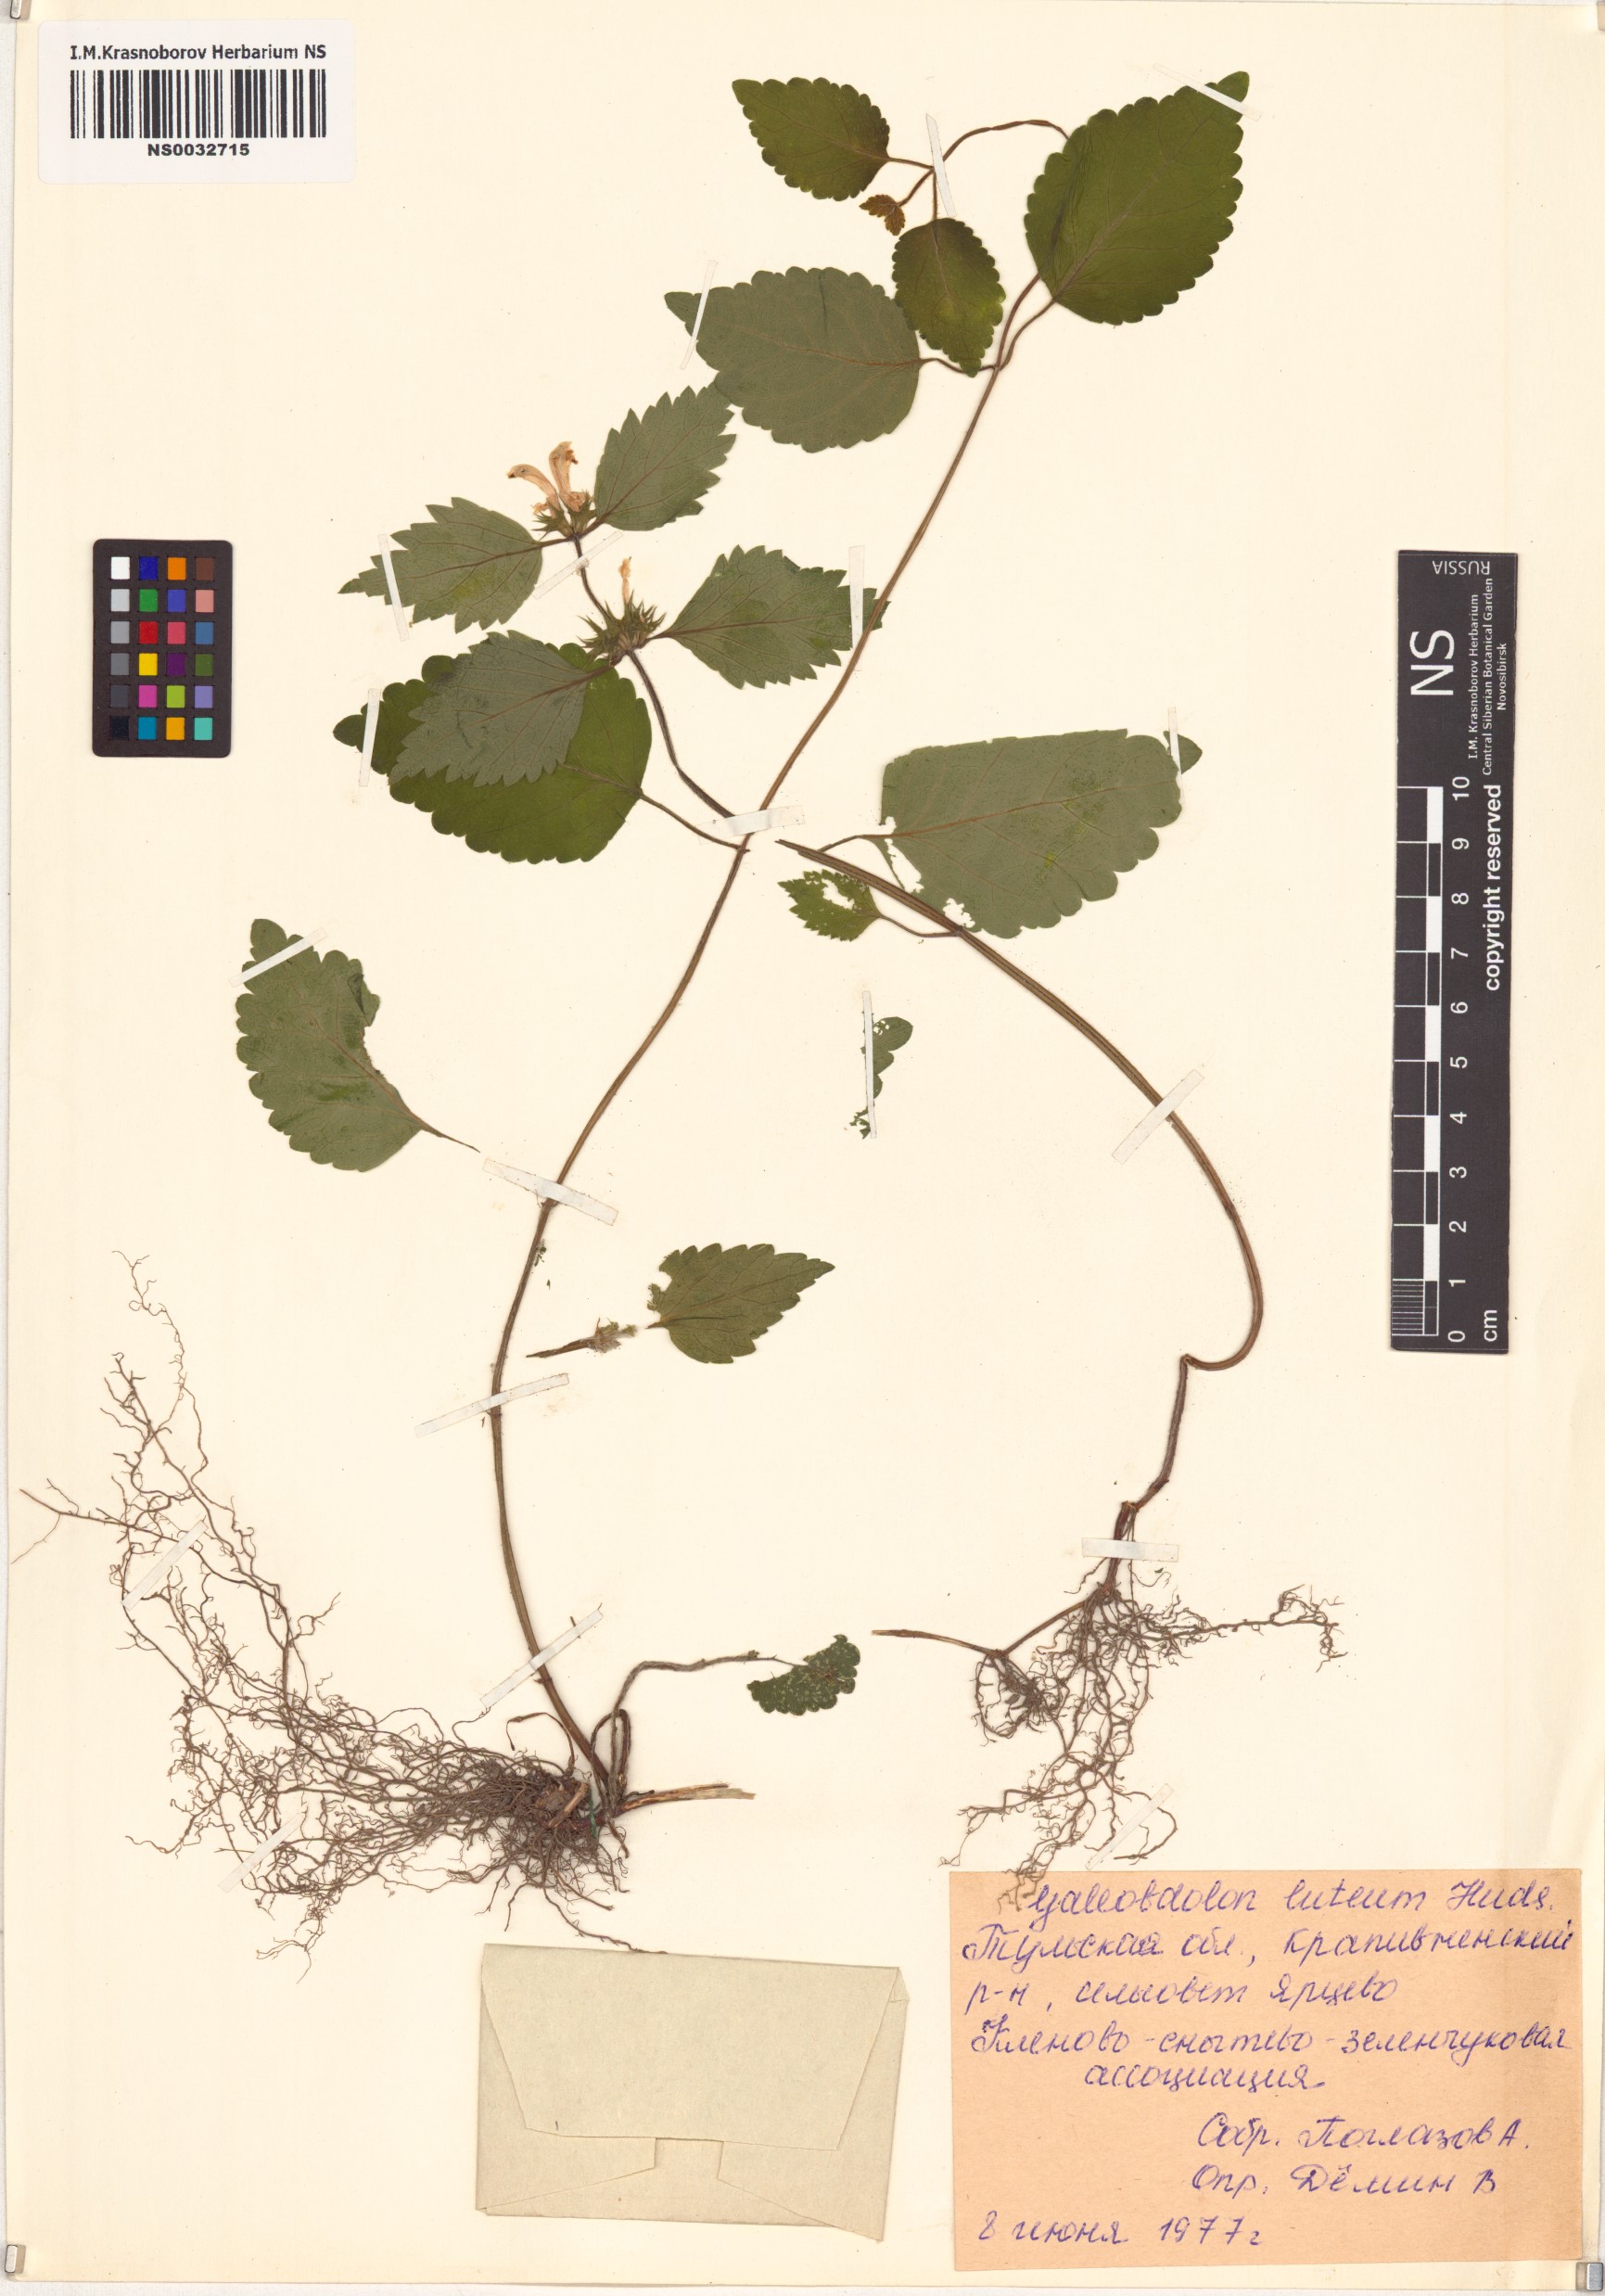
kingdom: Plantae
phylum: Tracheophyta
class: Magnoliopsida
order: Lamiales
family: Lamiaceae
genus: Lamium
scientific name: Lamium galeobdolon
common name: Yellow archangel
